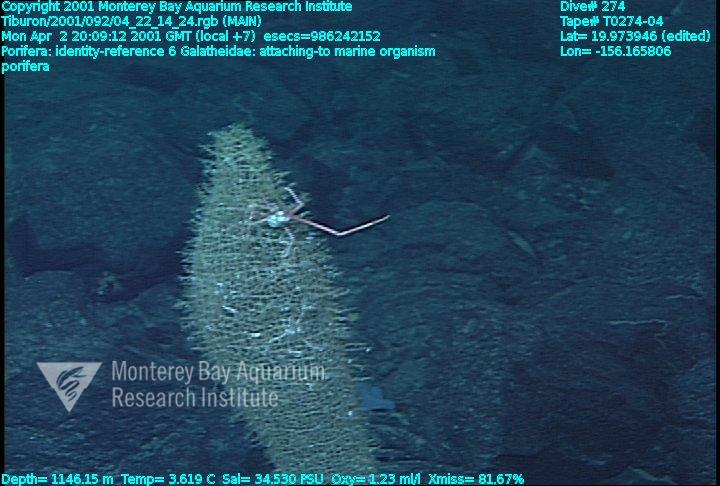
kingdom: Animalia
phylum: Porifera
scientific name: Porifera
